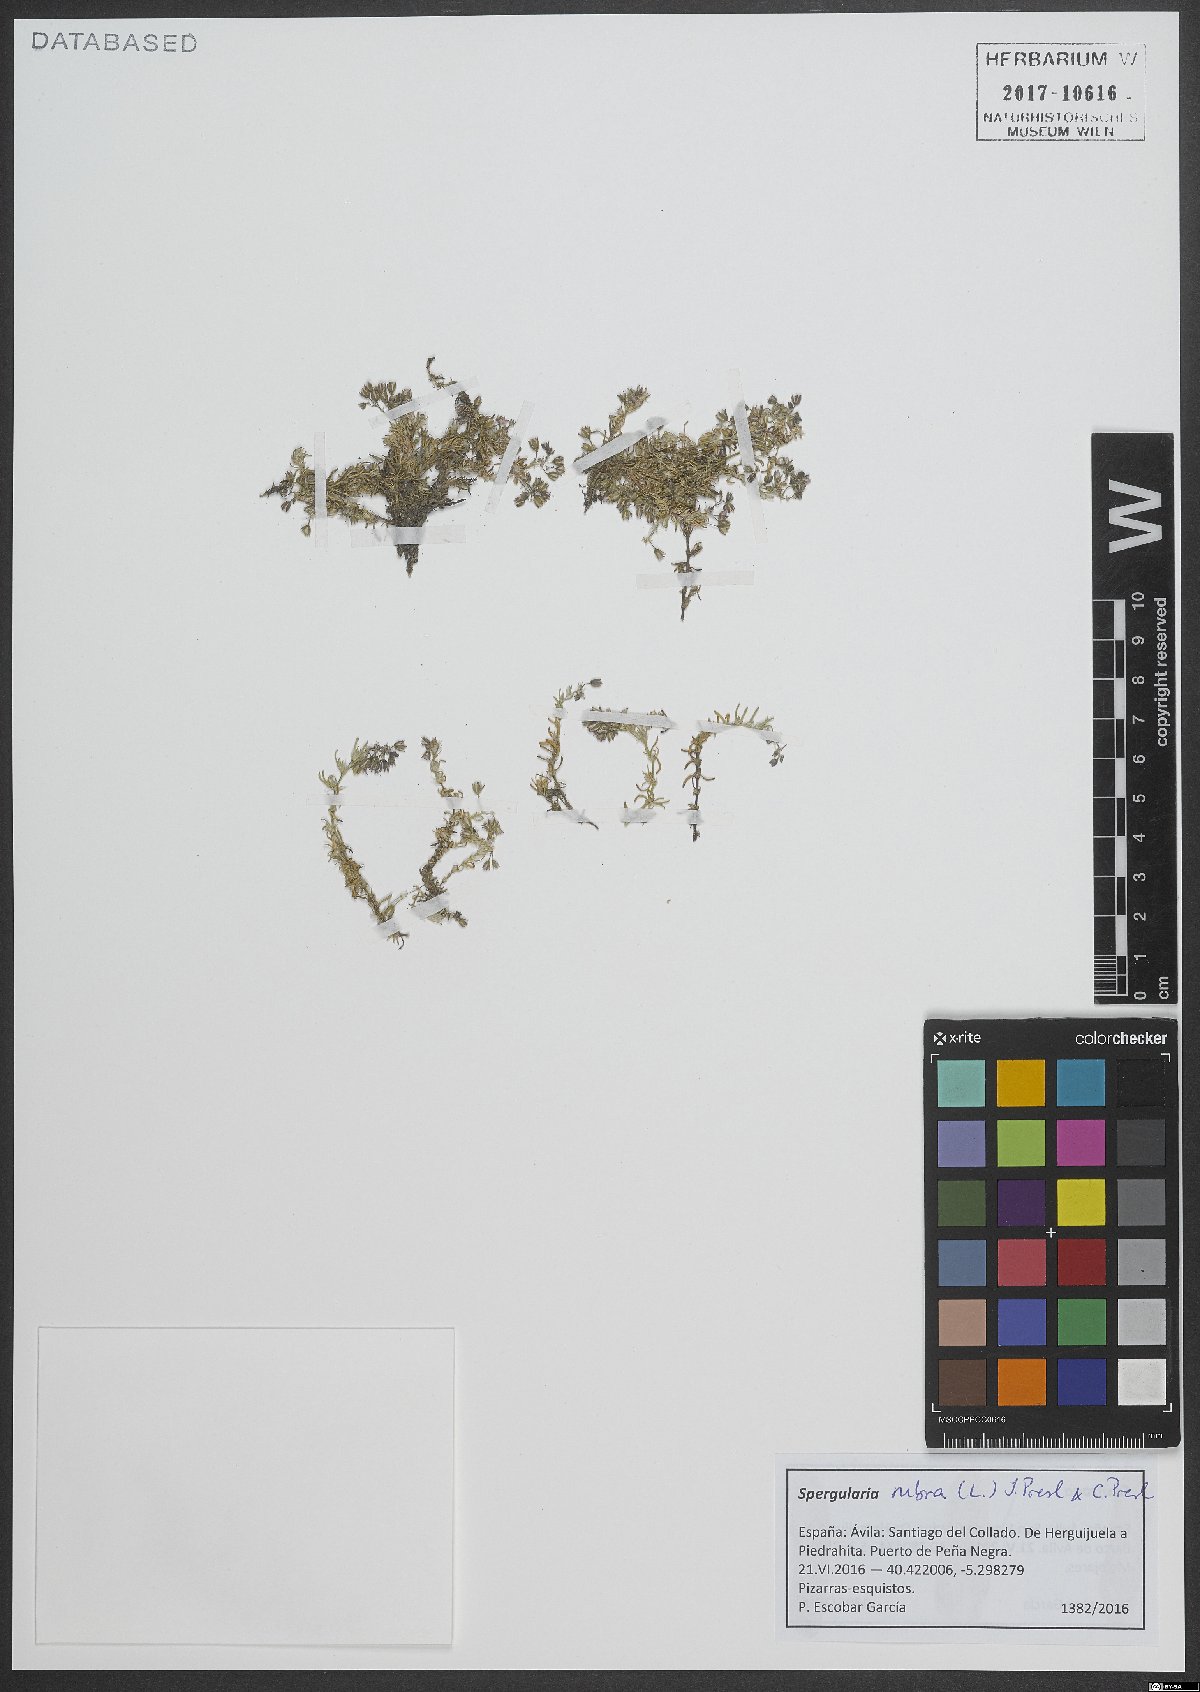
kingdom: Plantae
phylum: Tracheophyta
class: Magnoliopsida
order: Caryophyllales
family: Caryophyllaceae
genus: Spergularia
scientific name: Spergularia rubra
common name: Red sand-spurrey
